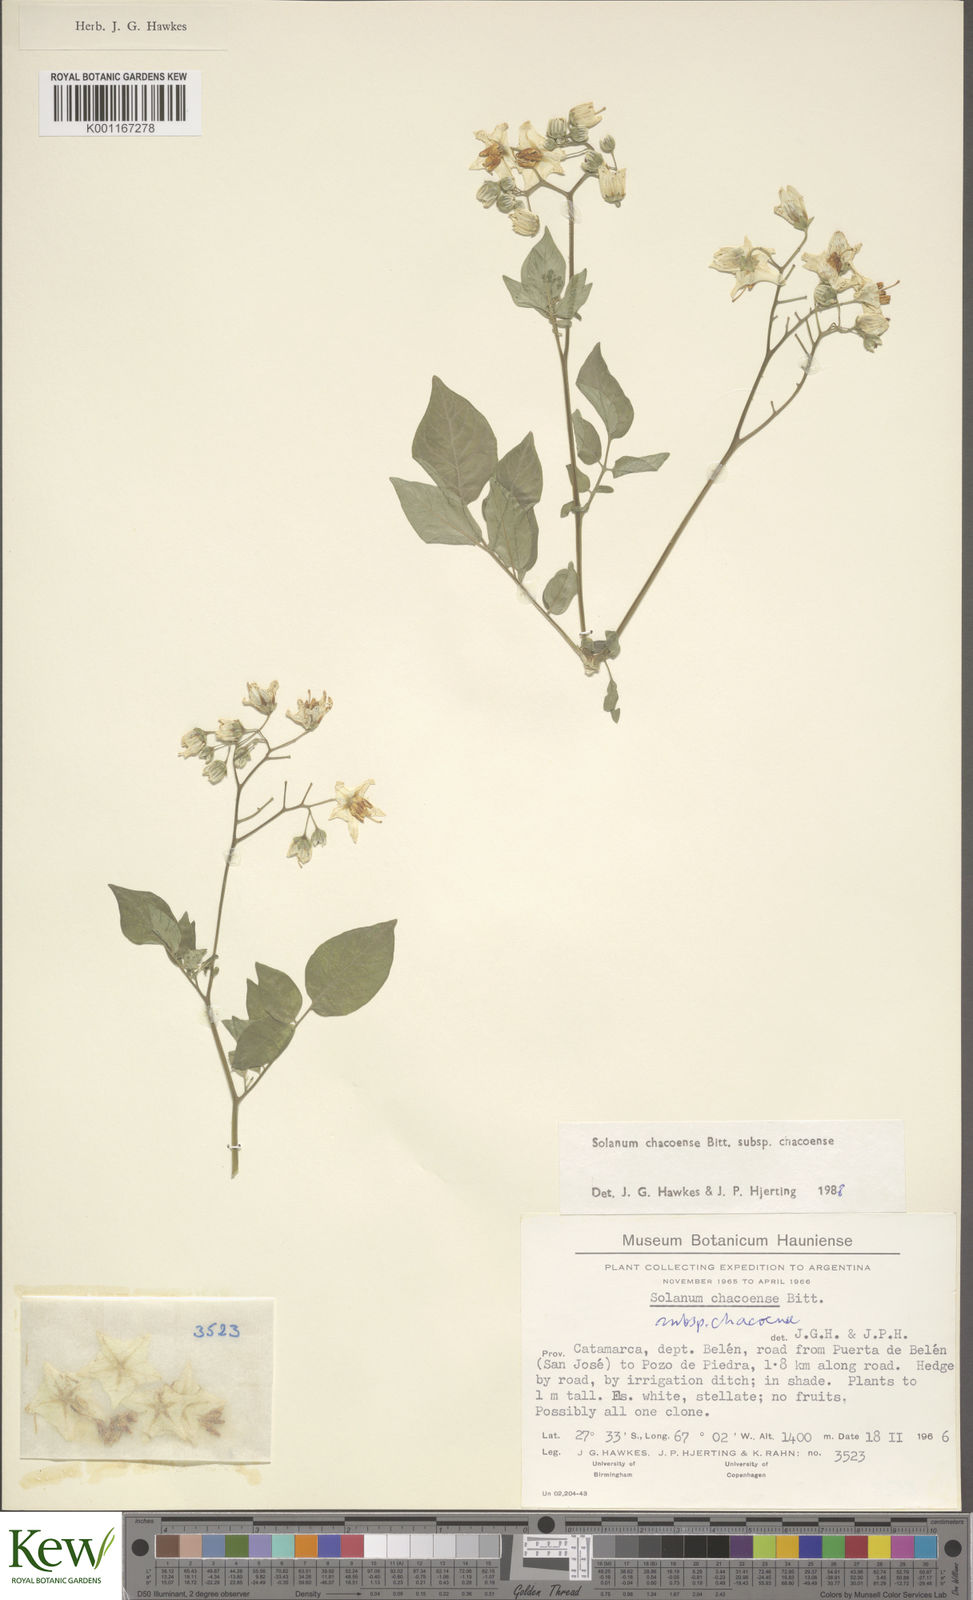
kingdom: Plantae
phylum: Tracheophyta
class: Magnoliopsida
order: Solanales
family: Solanaceae
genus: Solanum
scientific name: Solanum chacoense
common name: Chaco potato
